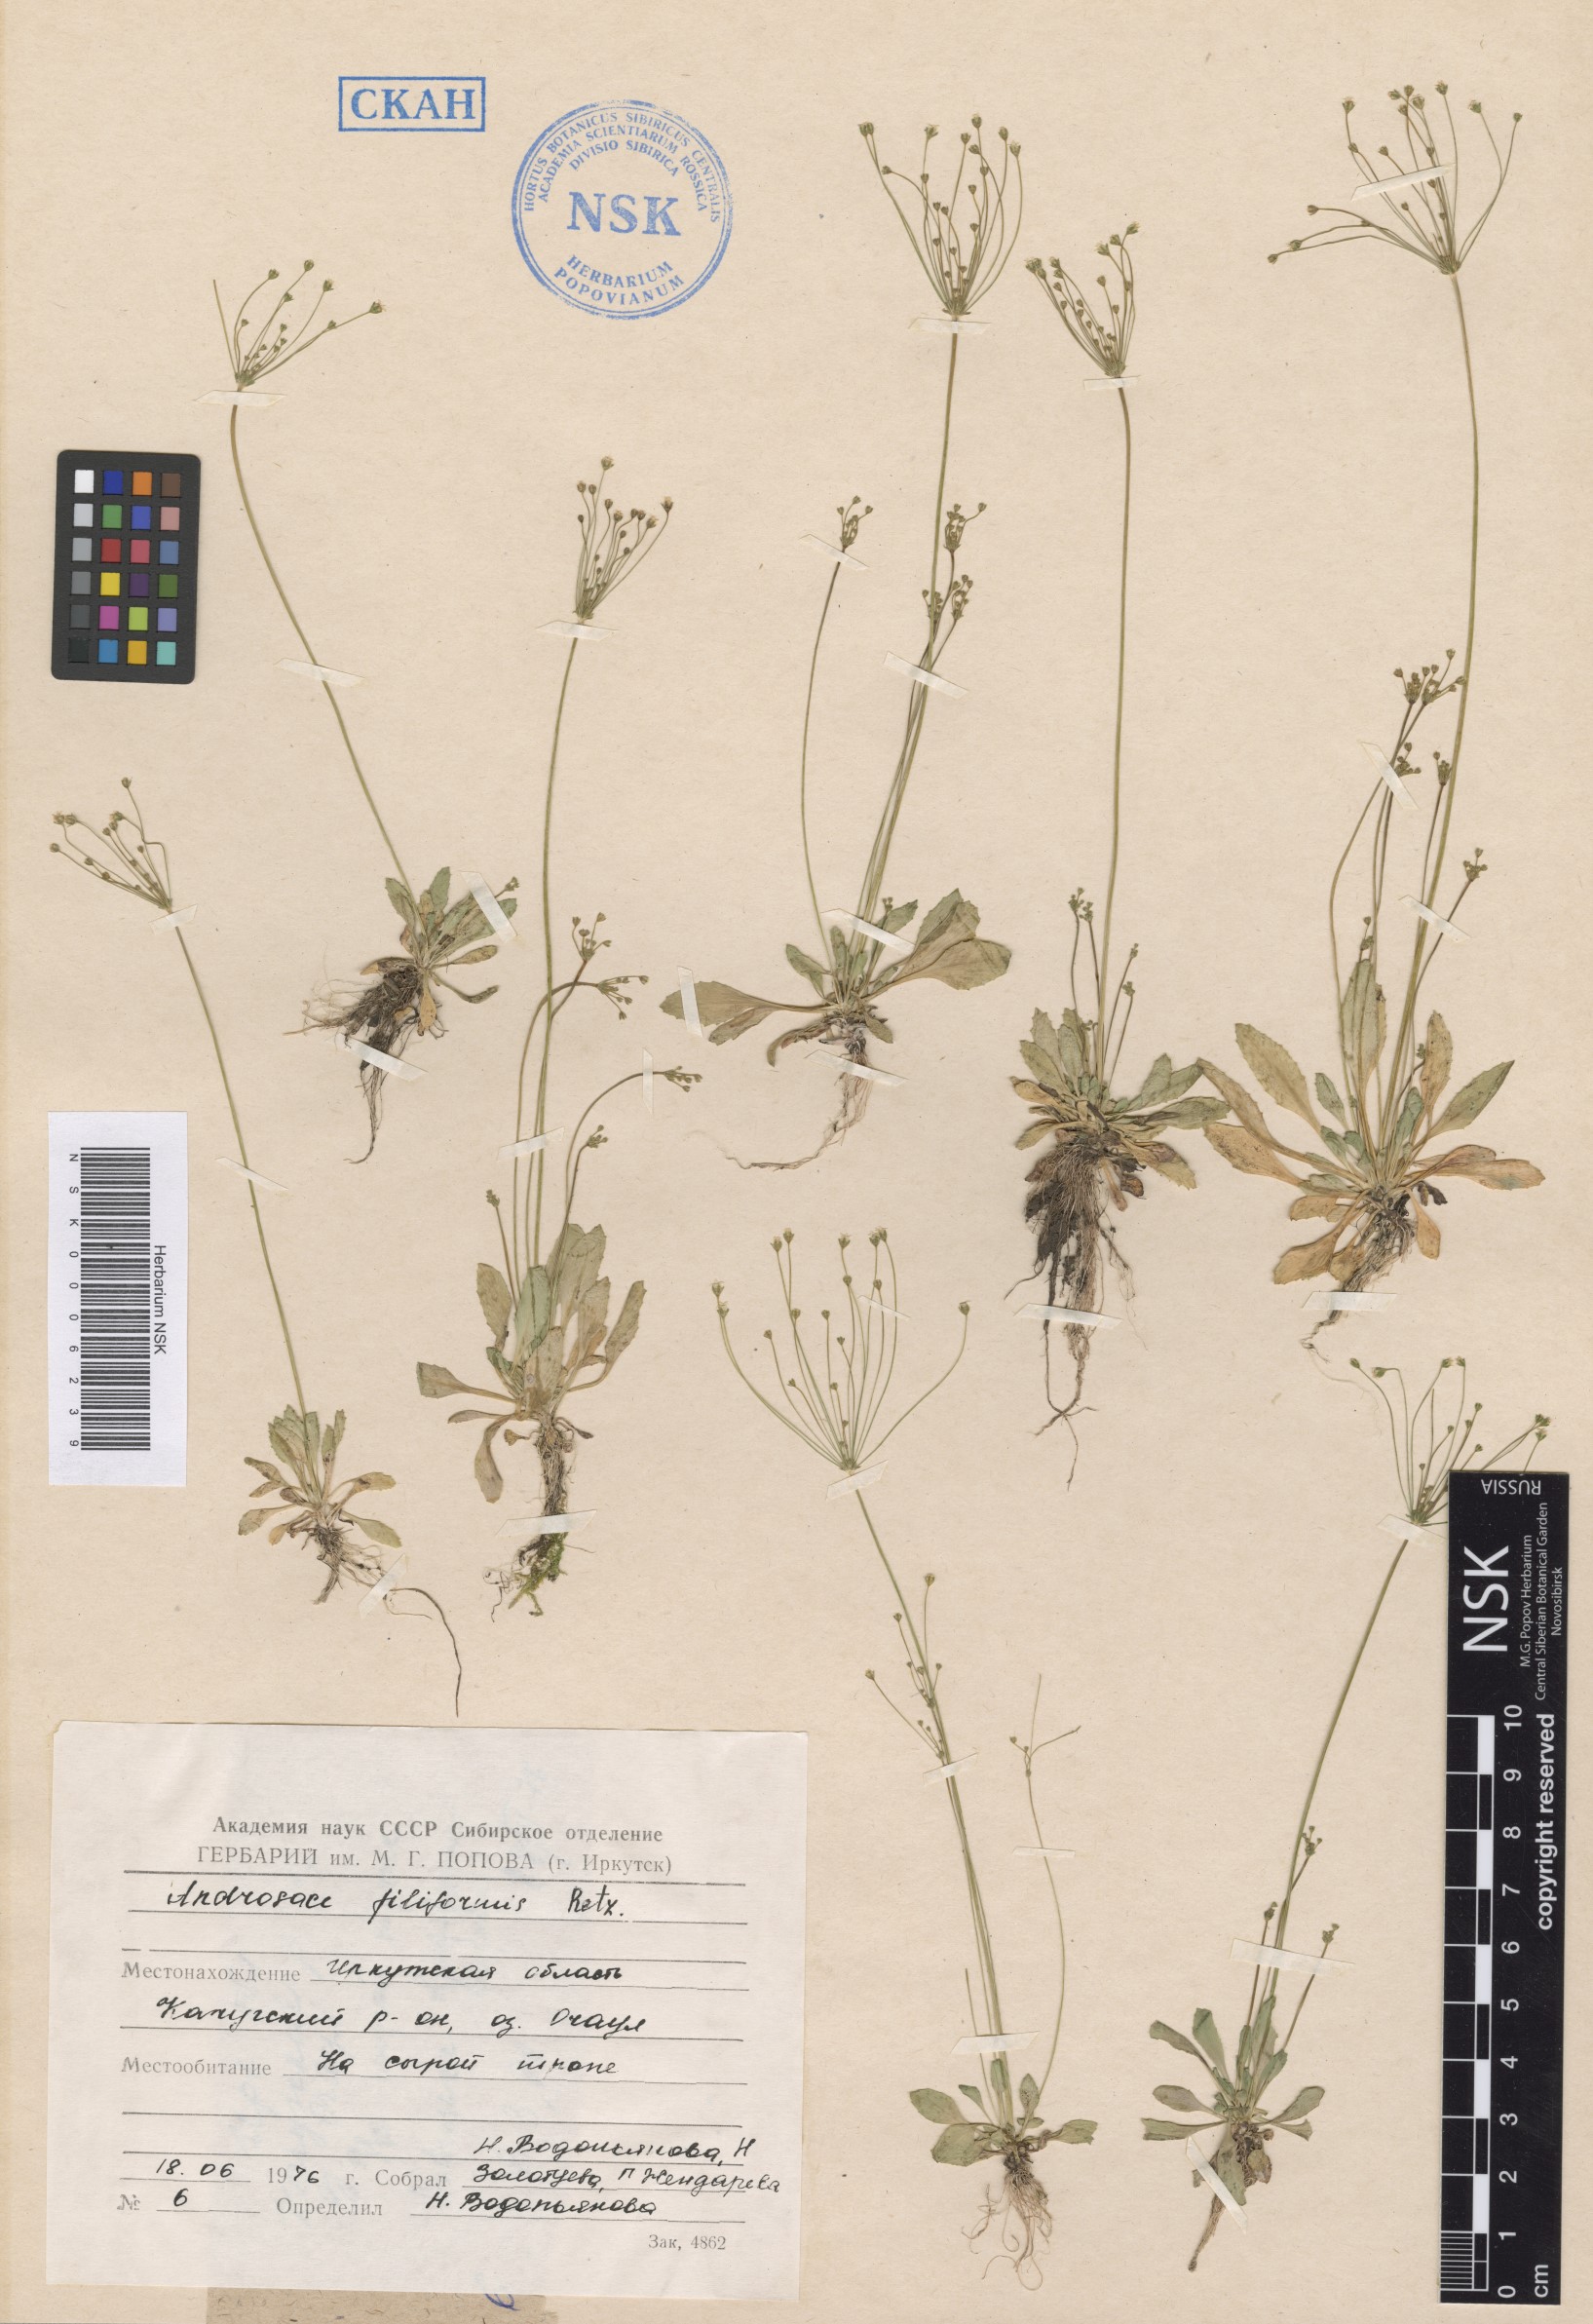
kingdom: Plantae
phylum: Tracheophyta
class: Magnoliopsida
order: Ericales
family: Primulaceae
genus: Androsace
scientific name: Androsace filiformis
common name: Filiform rock jasmine
